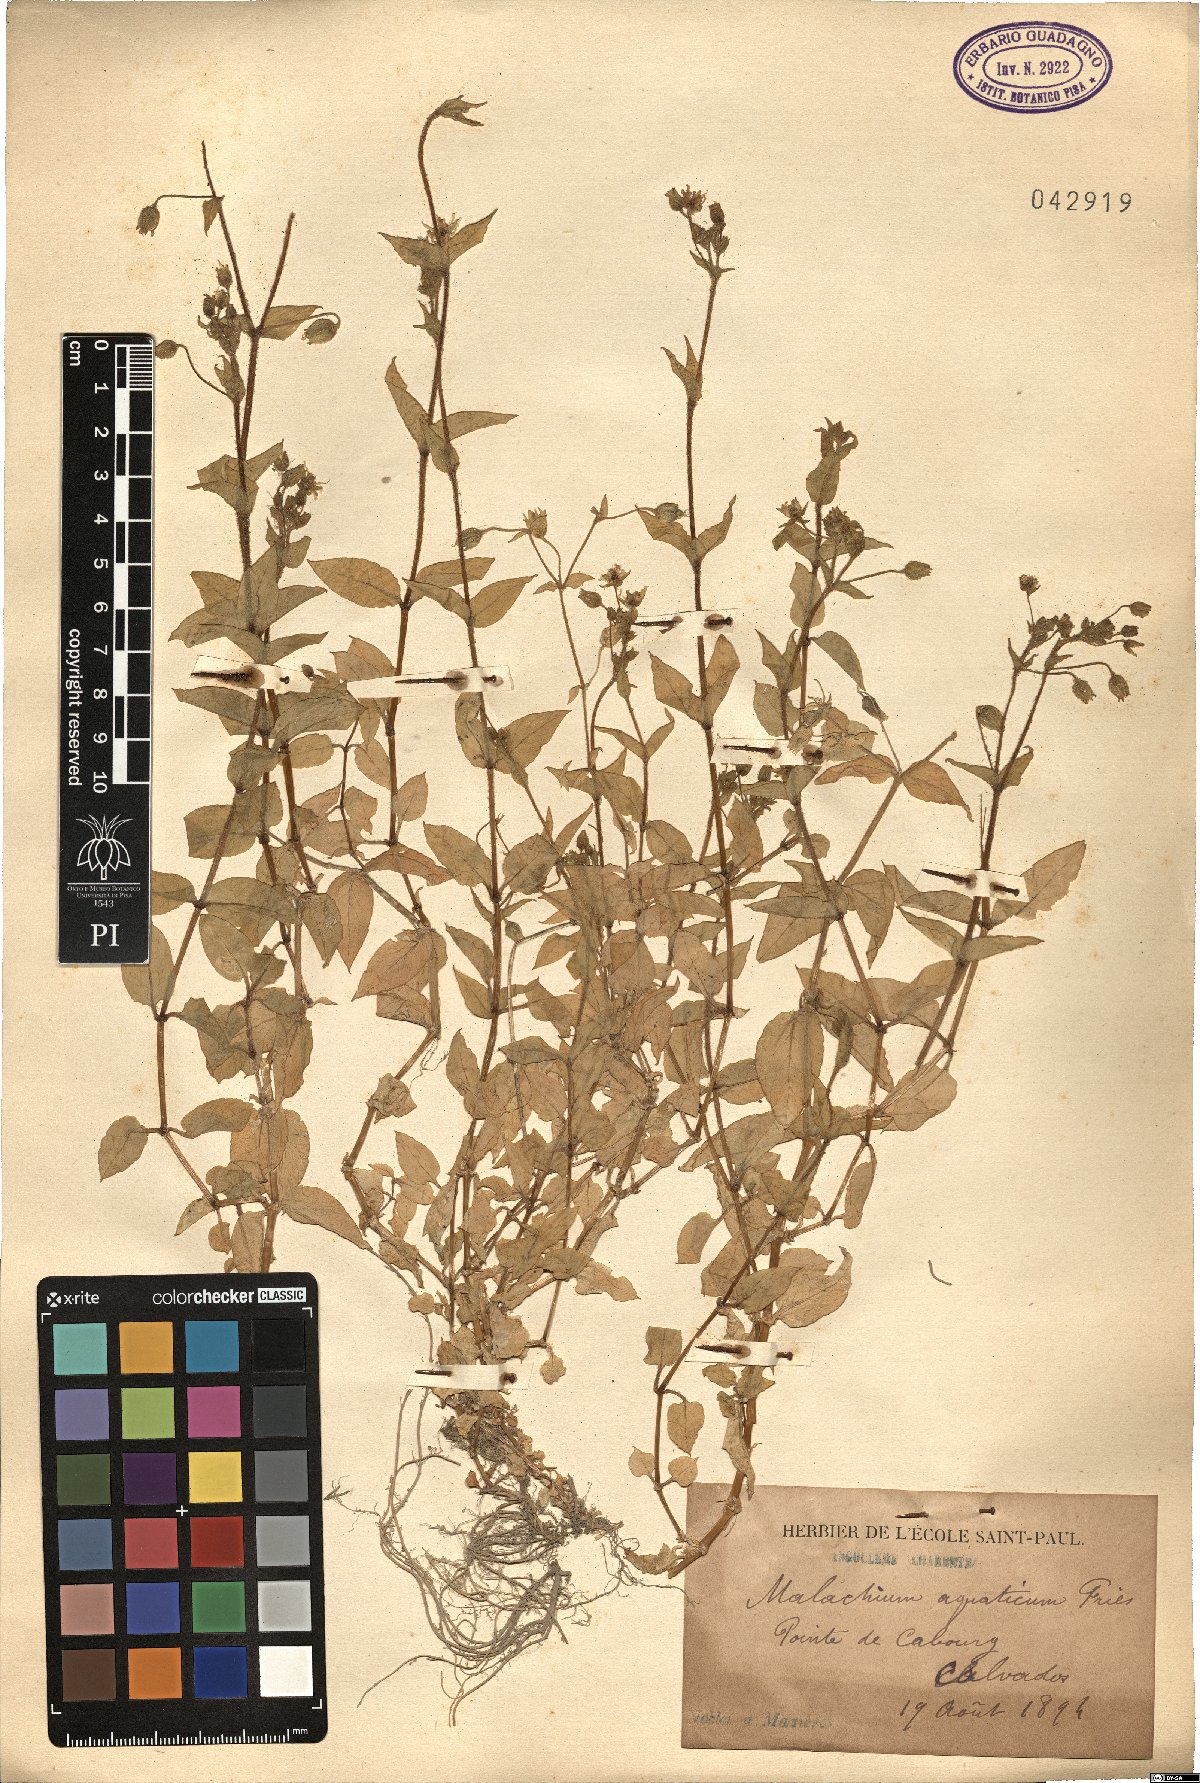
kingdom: Plantae
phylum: Tracheophyta
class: Magnoliopsida
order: Caryophyllales
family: Caryophyllaceae
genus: Stellaria
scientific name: Stellaria aquatica
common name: Water chickweed
